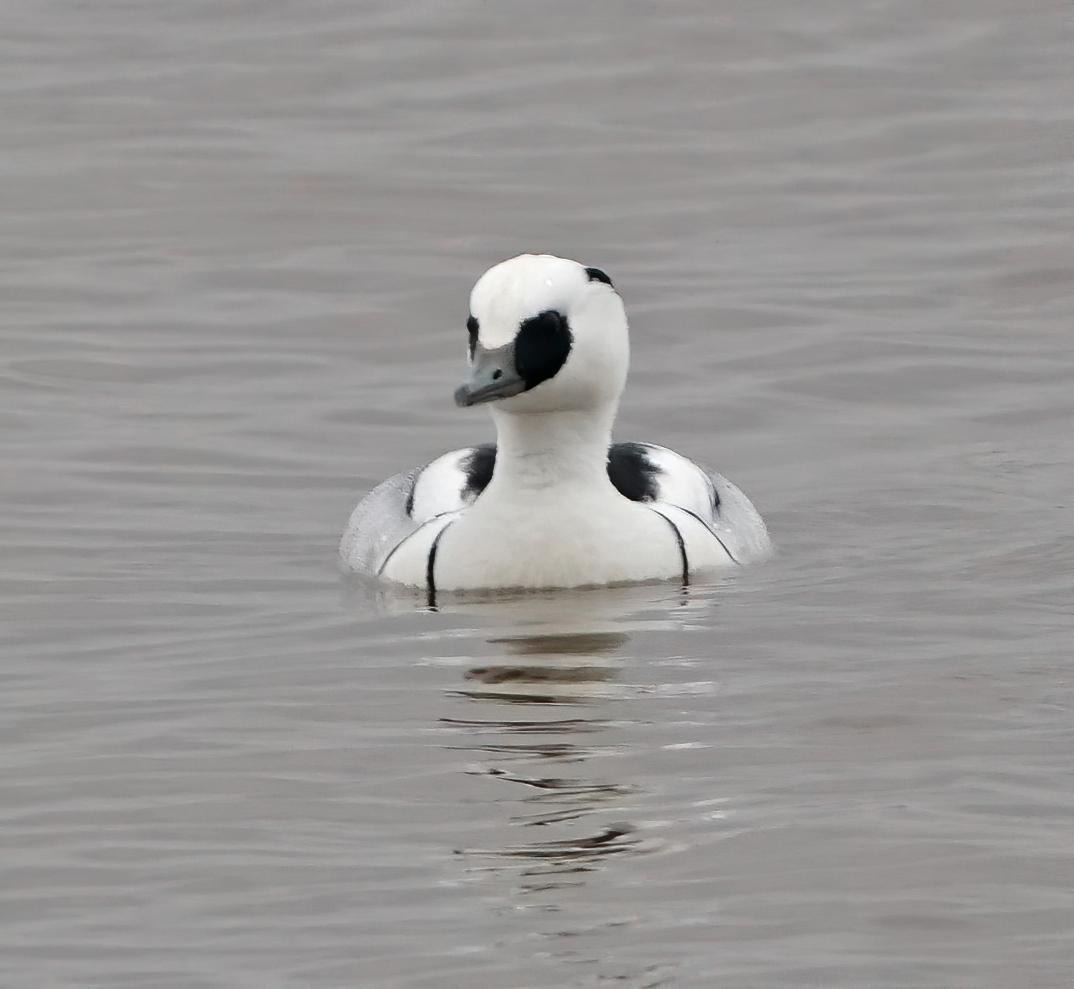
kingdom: Animalia
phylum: Chordata
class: Aves
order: Anseriformes
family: Anatidae
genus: Mergellus
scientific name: Mergellus albellus
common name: Lille skallesluger
